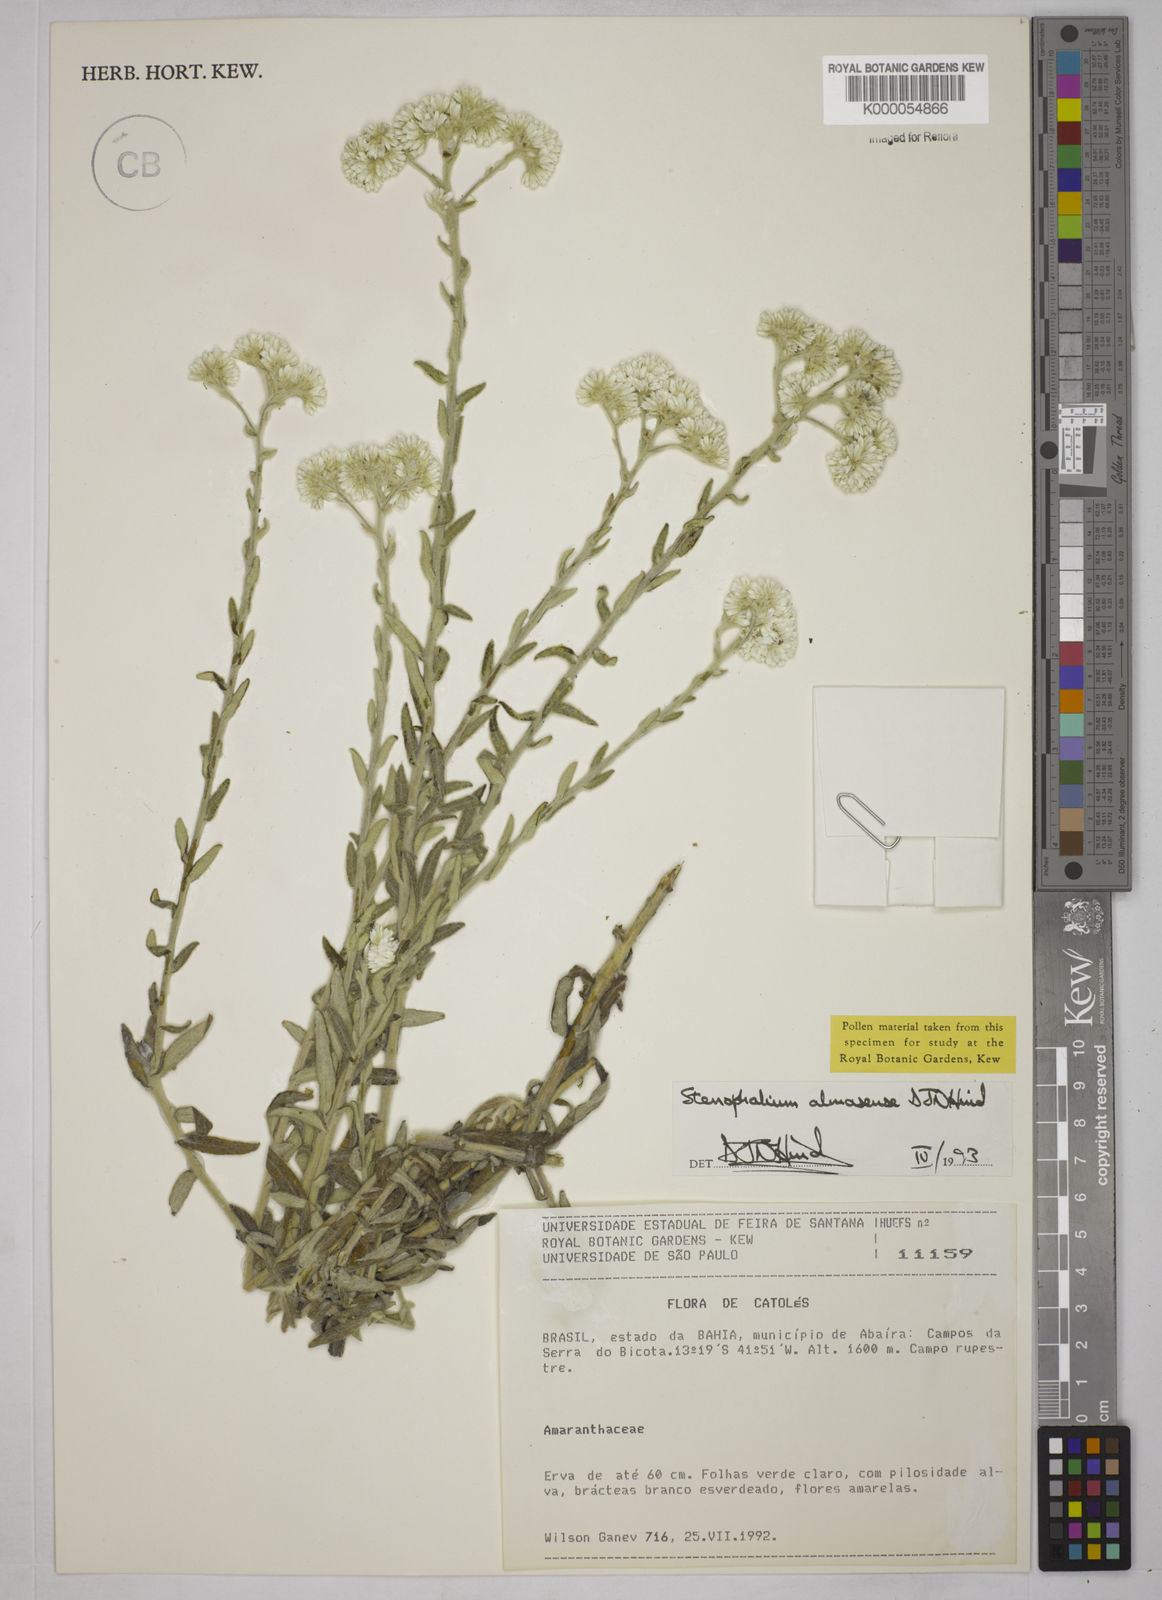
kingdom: Plantae
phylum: Tracheophyta
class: Magnoliopsida
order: Asterales
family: Asteraceae
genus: Achyrocline
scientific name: Achyrocline eriodes
